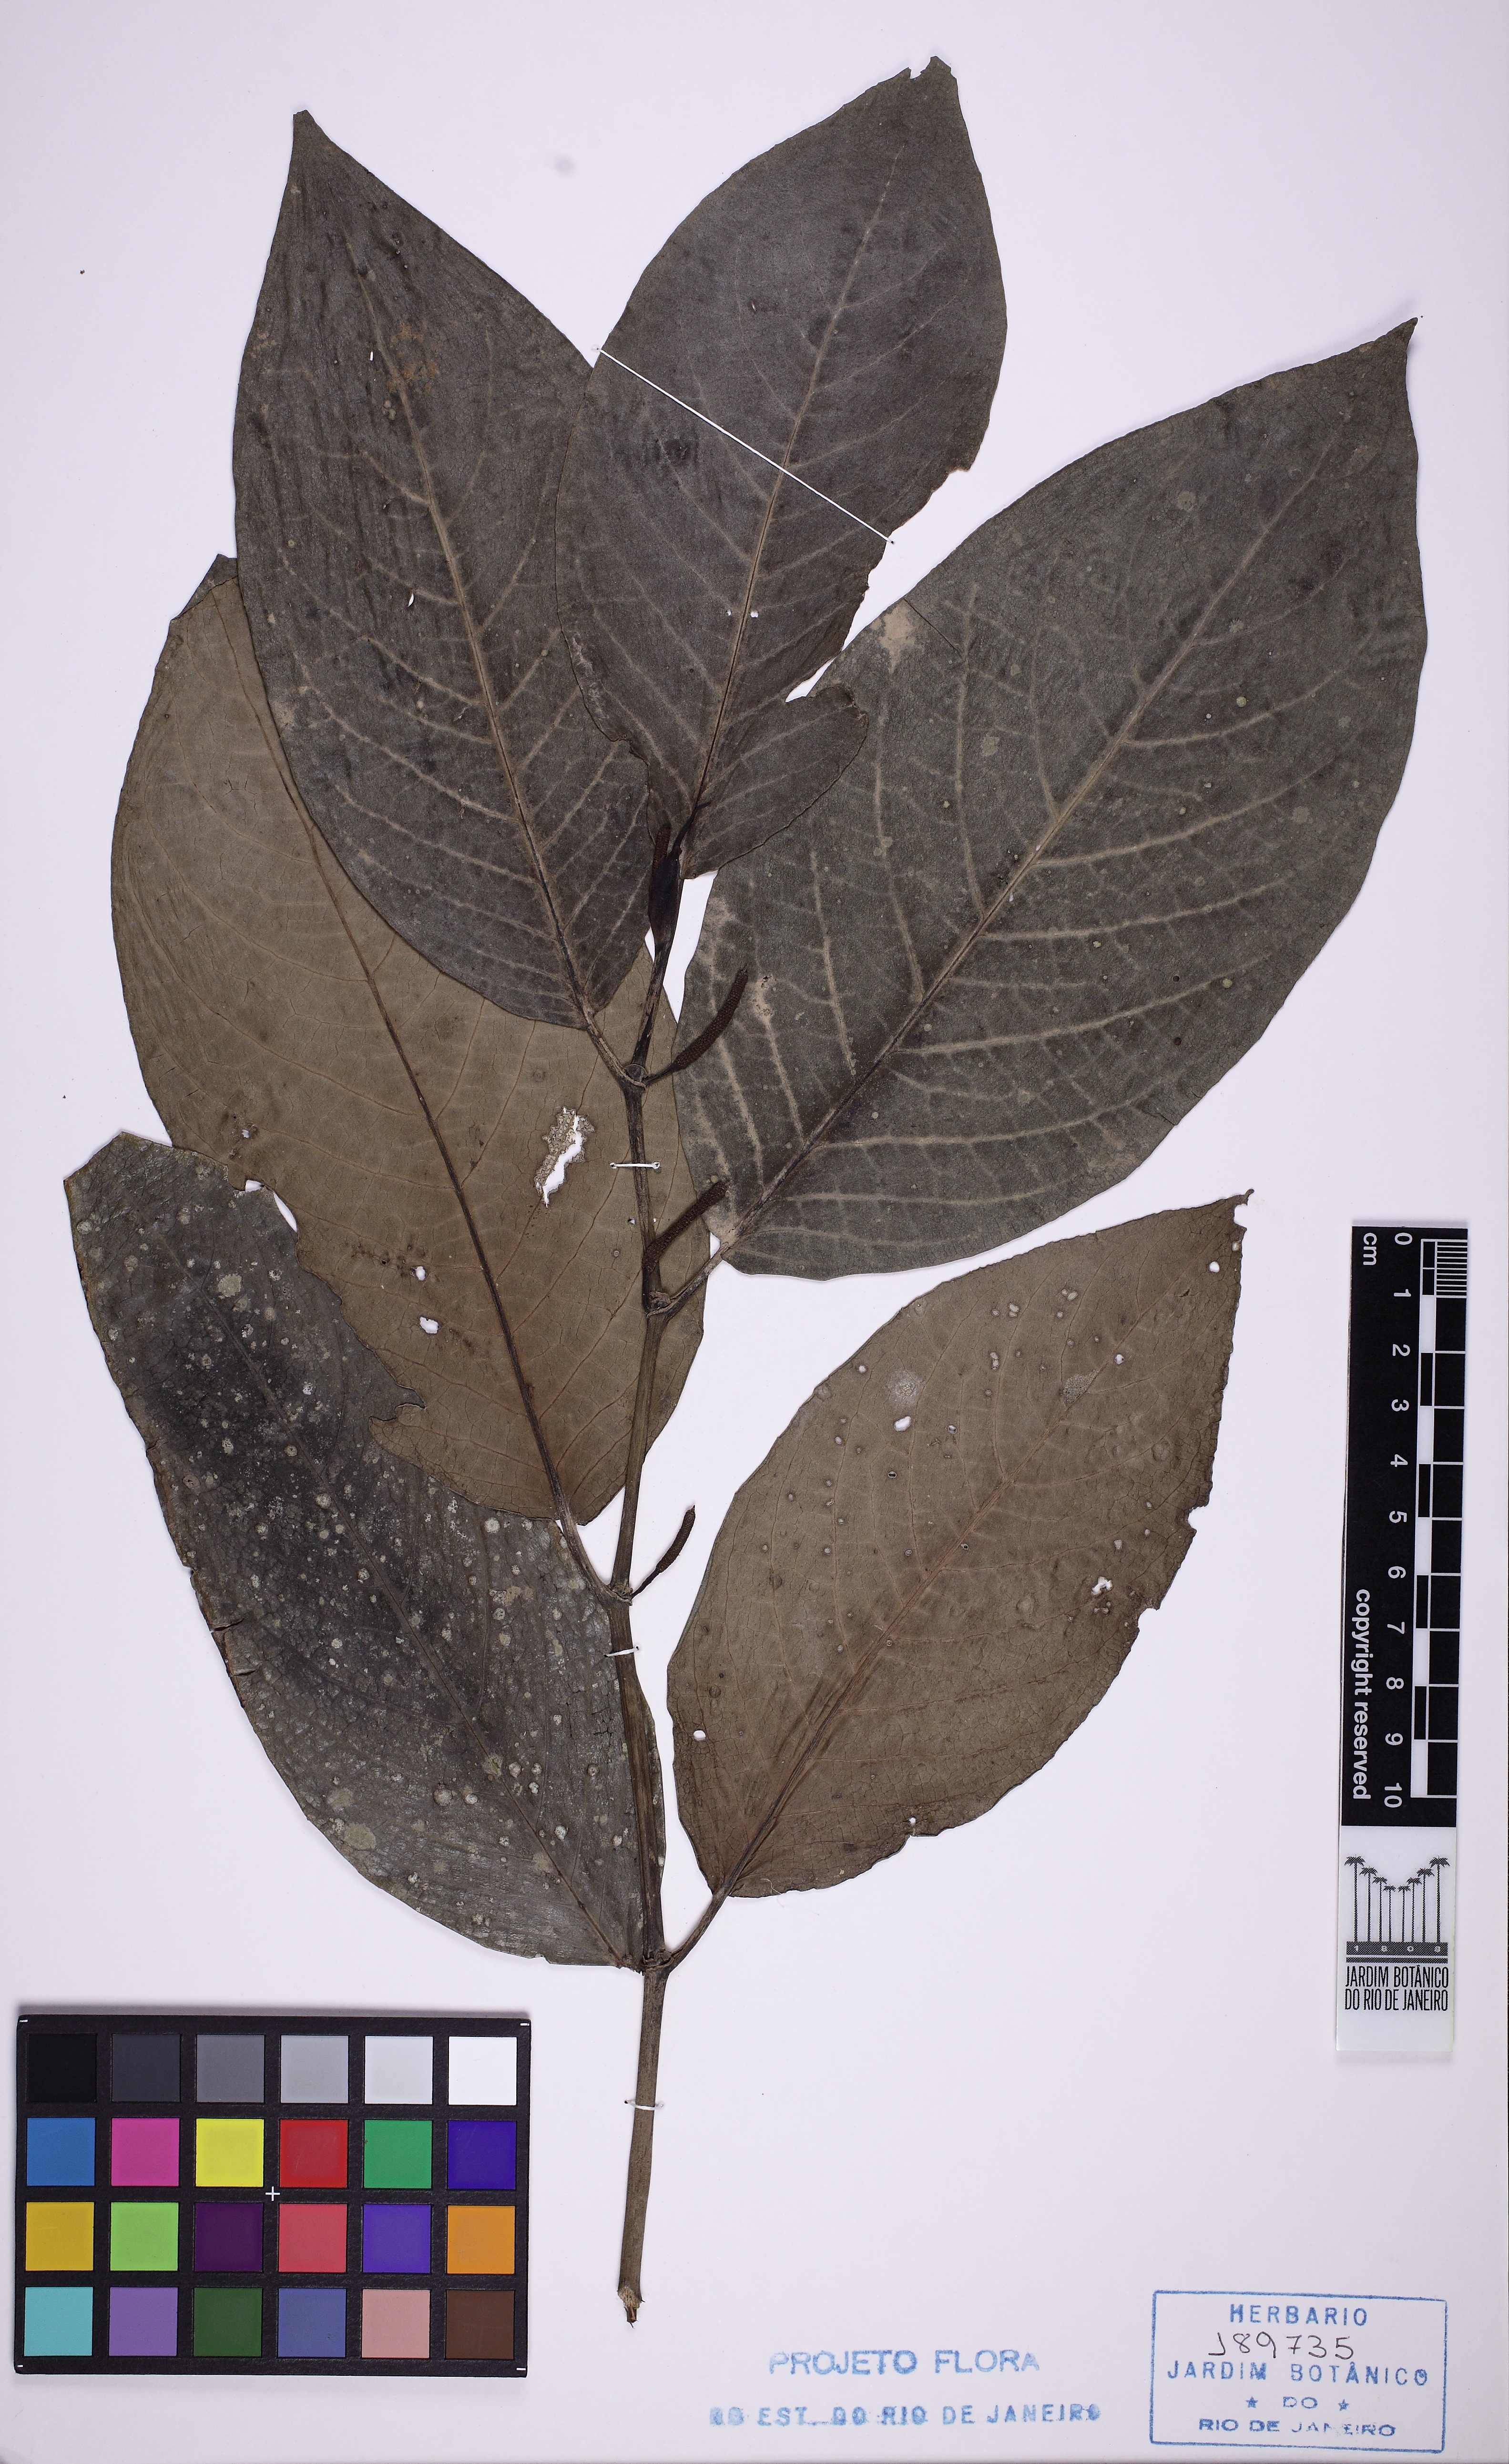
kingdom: Plantae
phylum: Tracheophyta
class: Magnoliopsida
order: Piperales
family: Piperaceae
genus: Piper
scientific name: Piper fluminense
